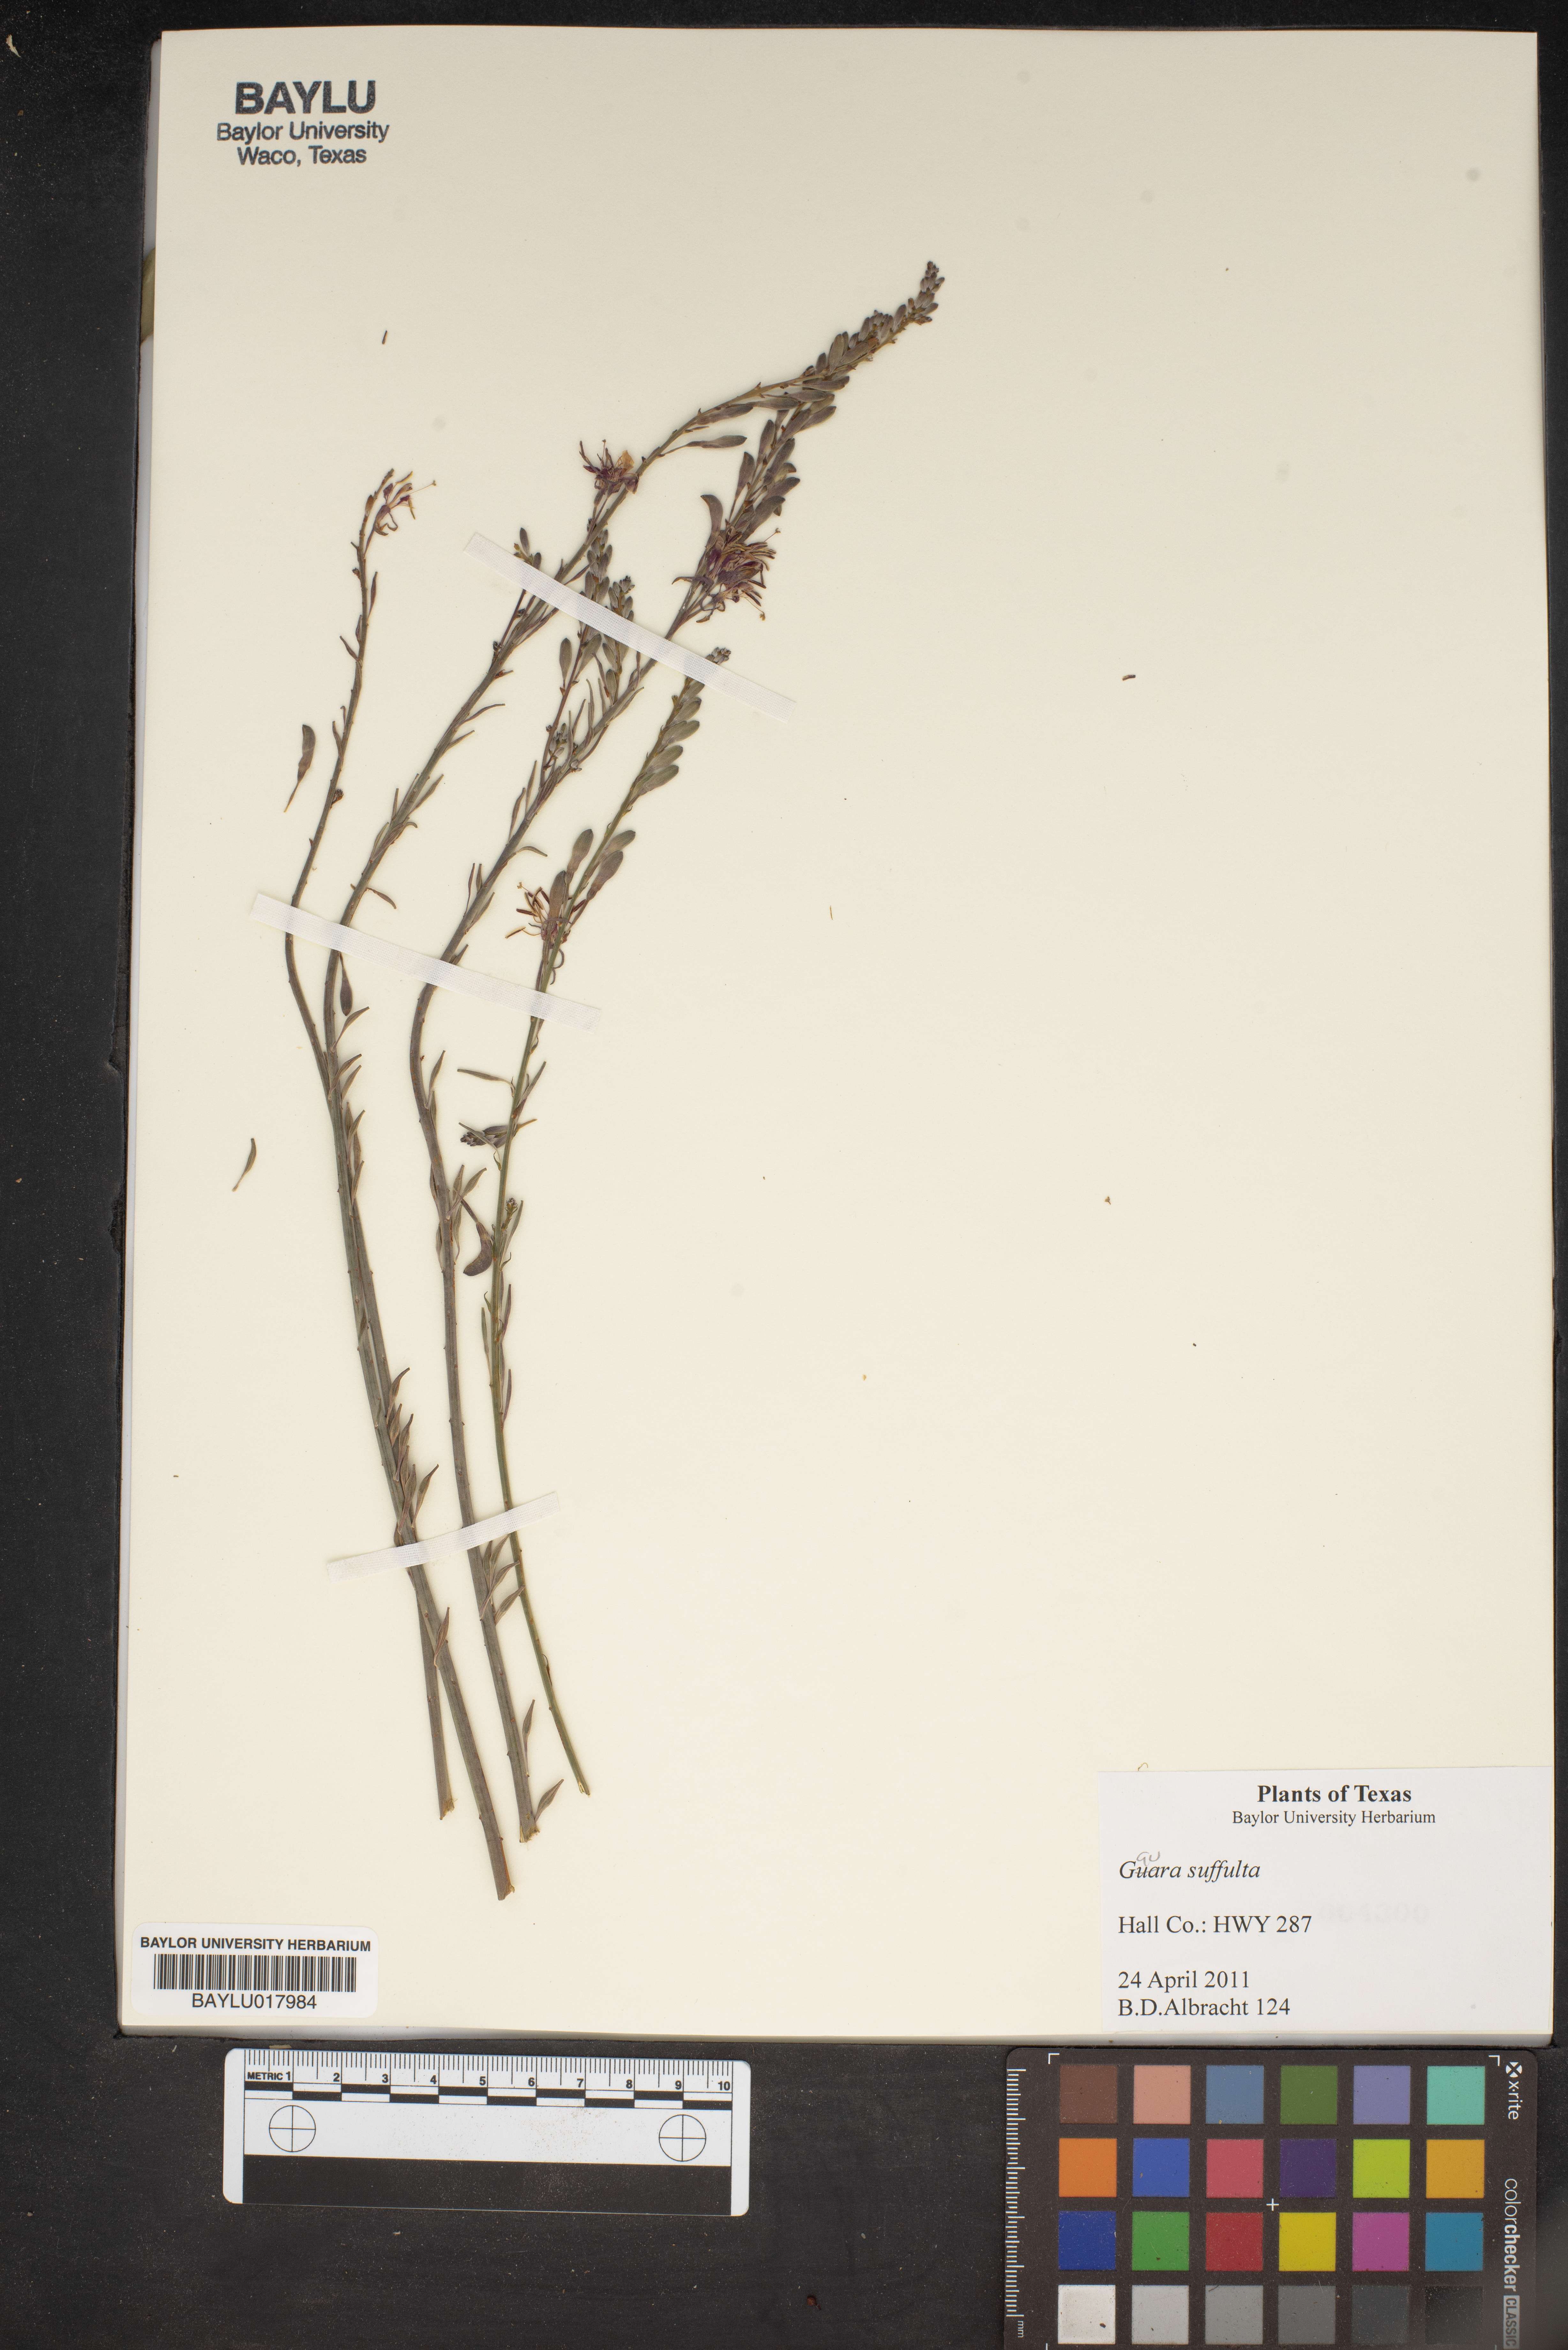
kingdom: Plantae
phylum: Tracheophyta
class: Magnoliopsida
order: Myrtales
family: Onagraceae
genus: Oenothera
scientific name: Oenothera Gaura suffulta
